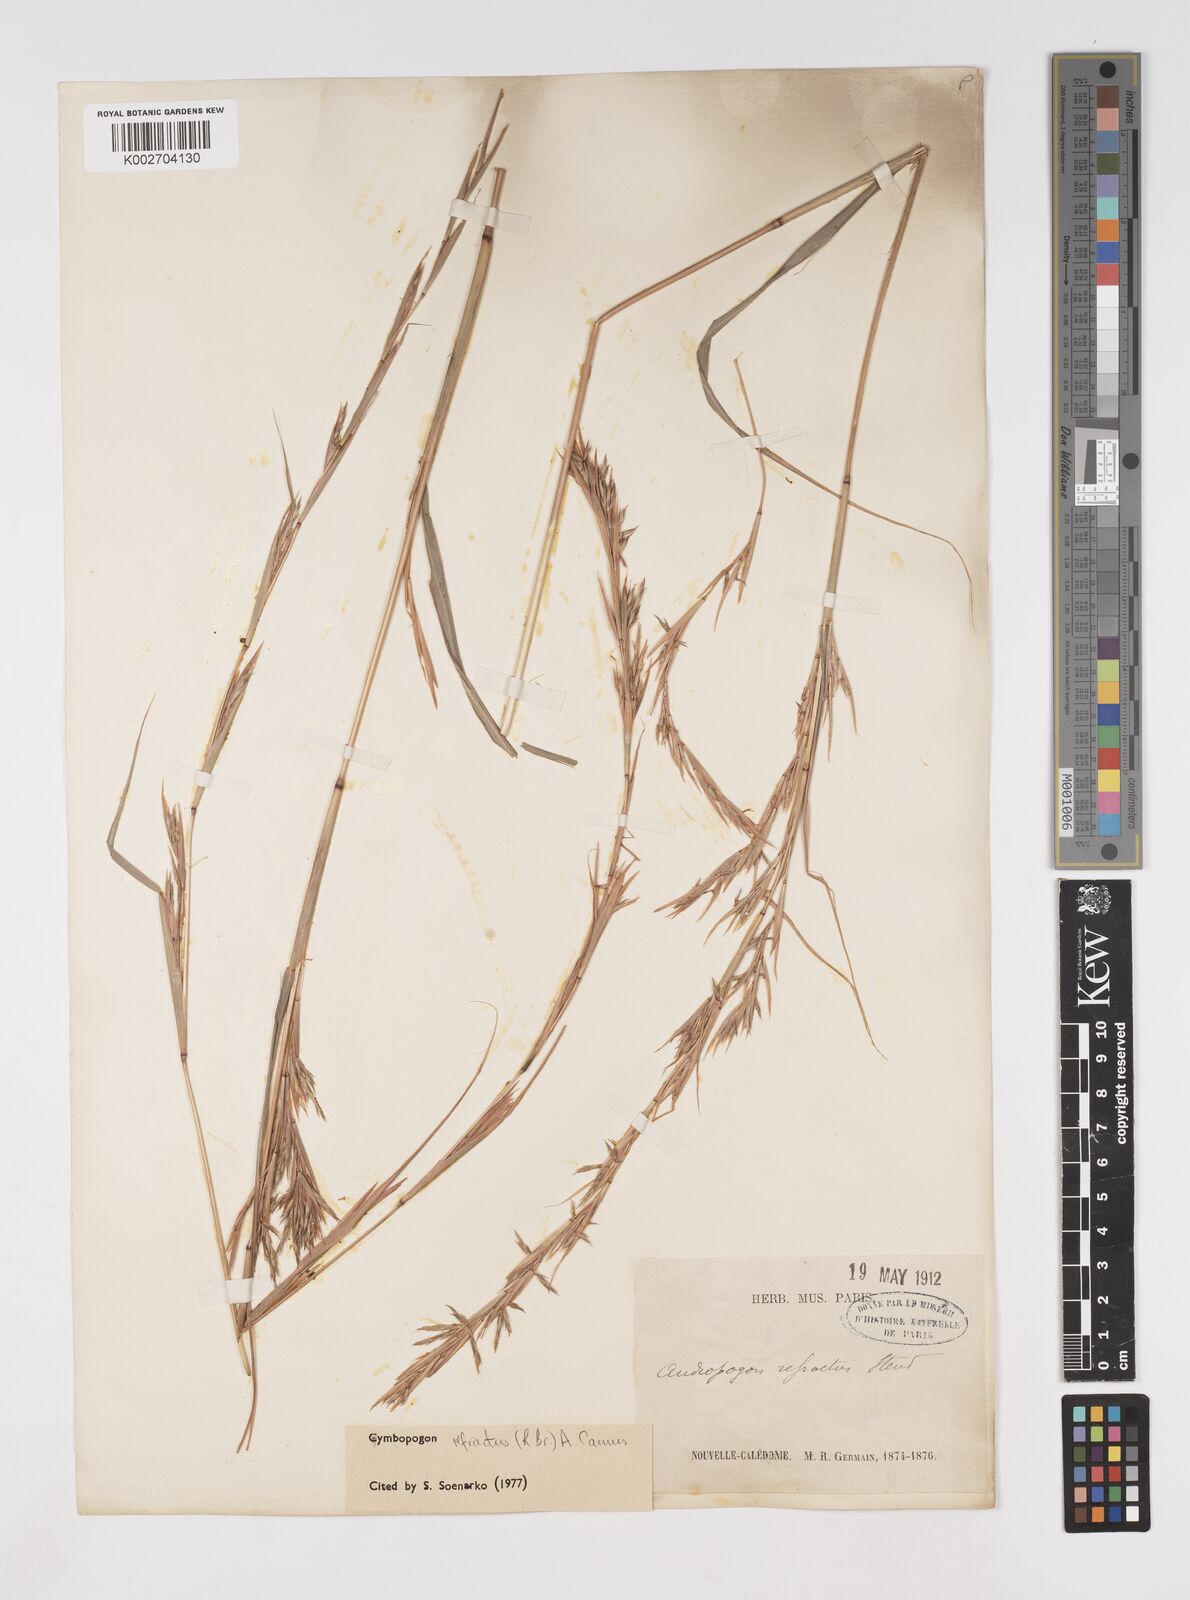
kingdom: Plantae
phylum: Tracheophyta
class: Liliopsida
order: Poales
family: Poaceae
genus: Cymbopogon
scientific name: Cymbopogon refractus
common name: Barbwire grass
